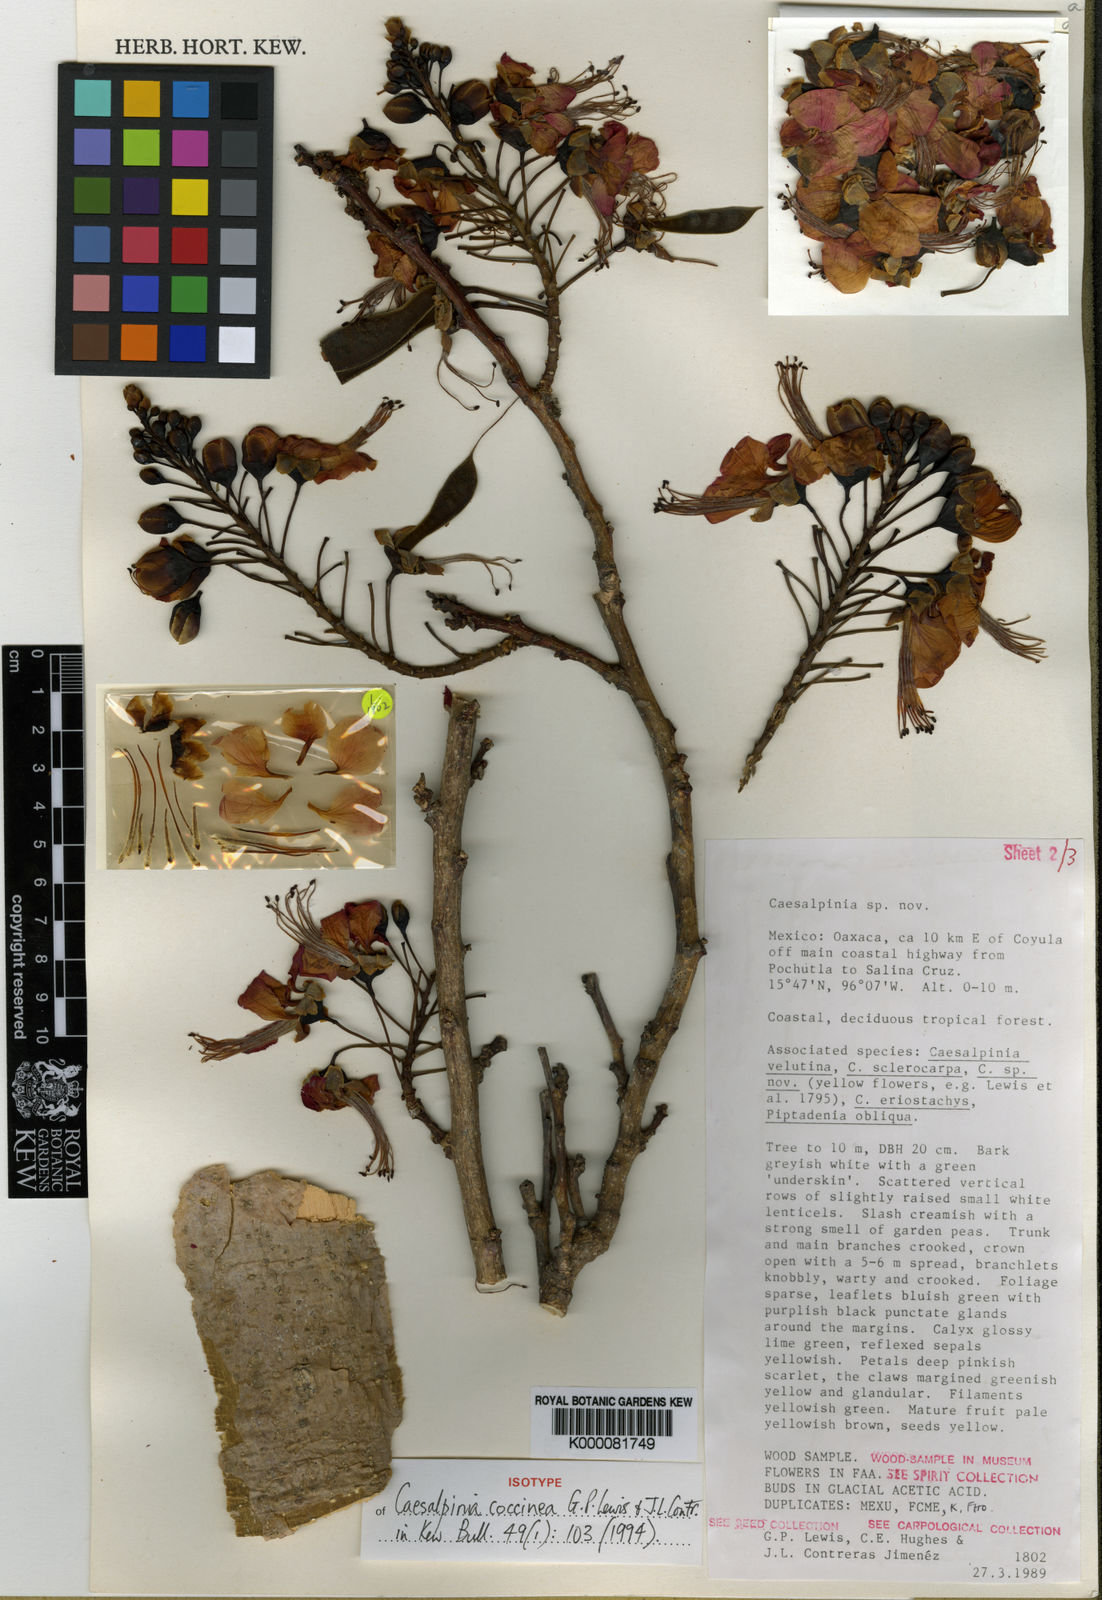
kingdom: Plantae
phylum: Tracheophyta
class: Magnoliopsida
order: Fabales
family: Fabaceae
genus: Erythrostemon
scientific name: Erythrostemon coccineus
